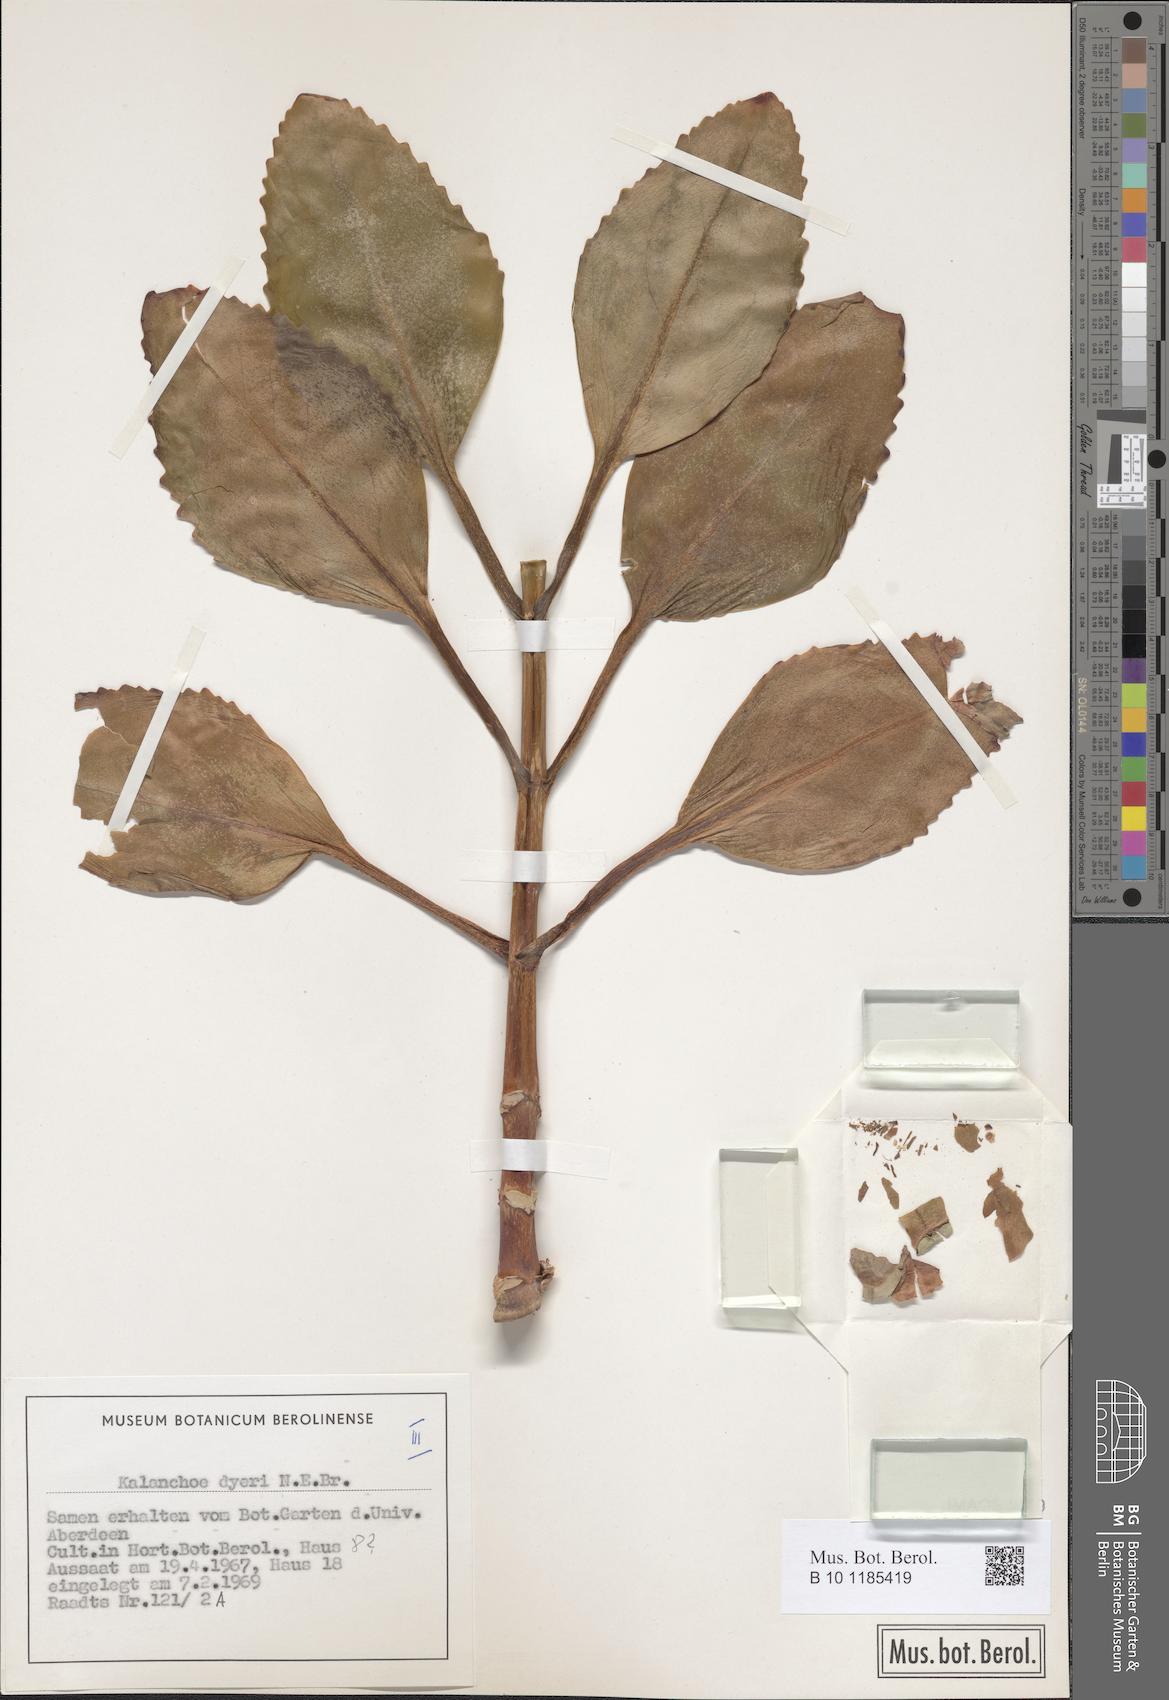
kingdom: Plantae
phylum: Tracheophyta
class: Magnoliopsida
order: Saxifragales
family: Crassulaceae
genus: Kalanchoe
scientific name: Kalanchoe dyeri
